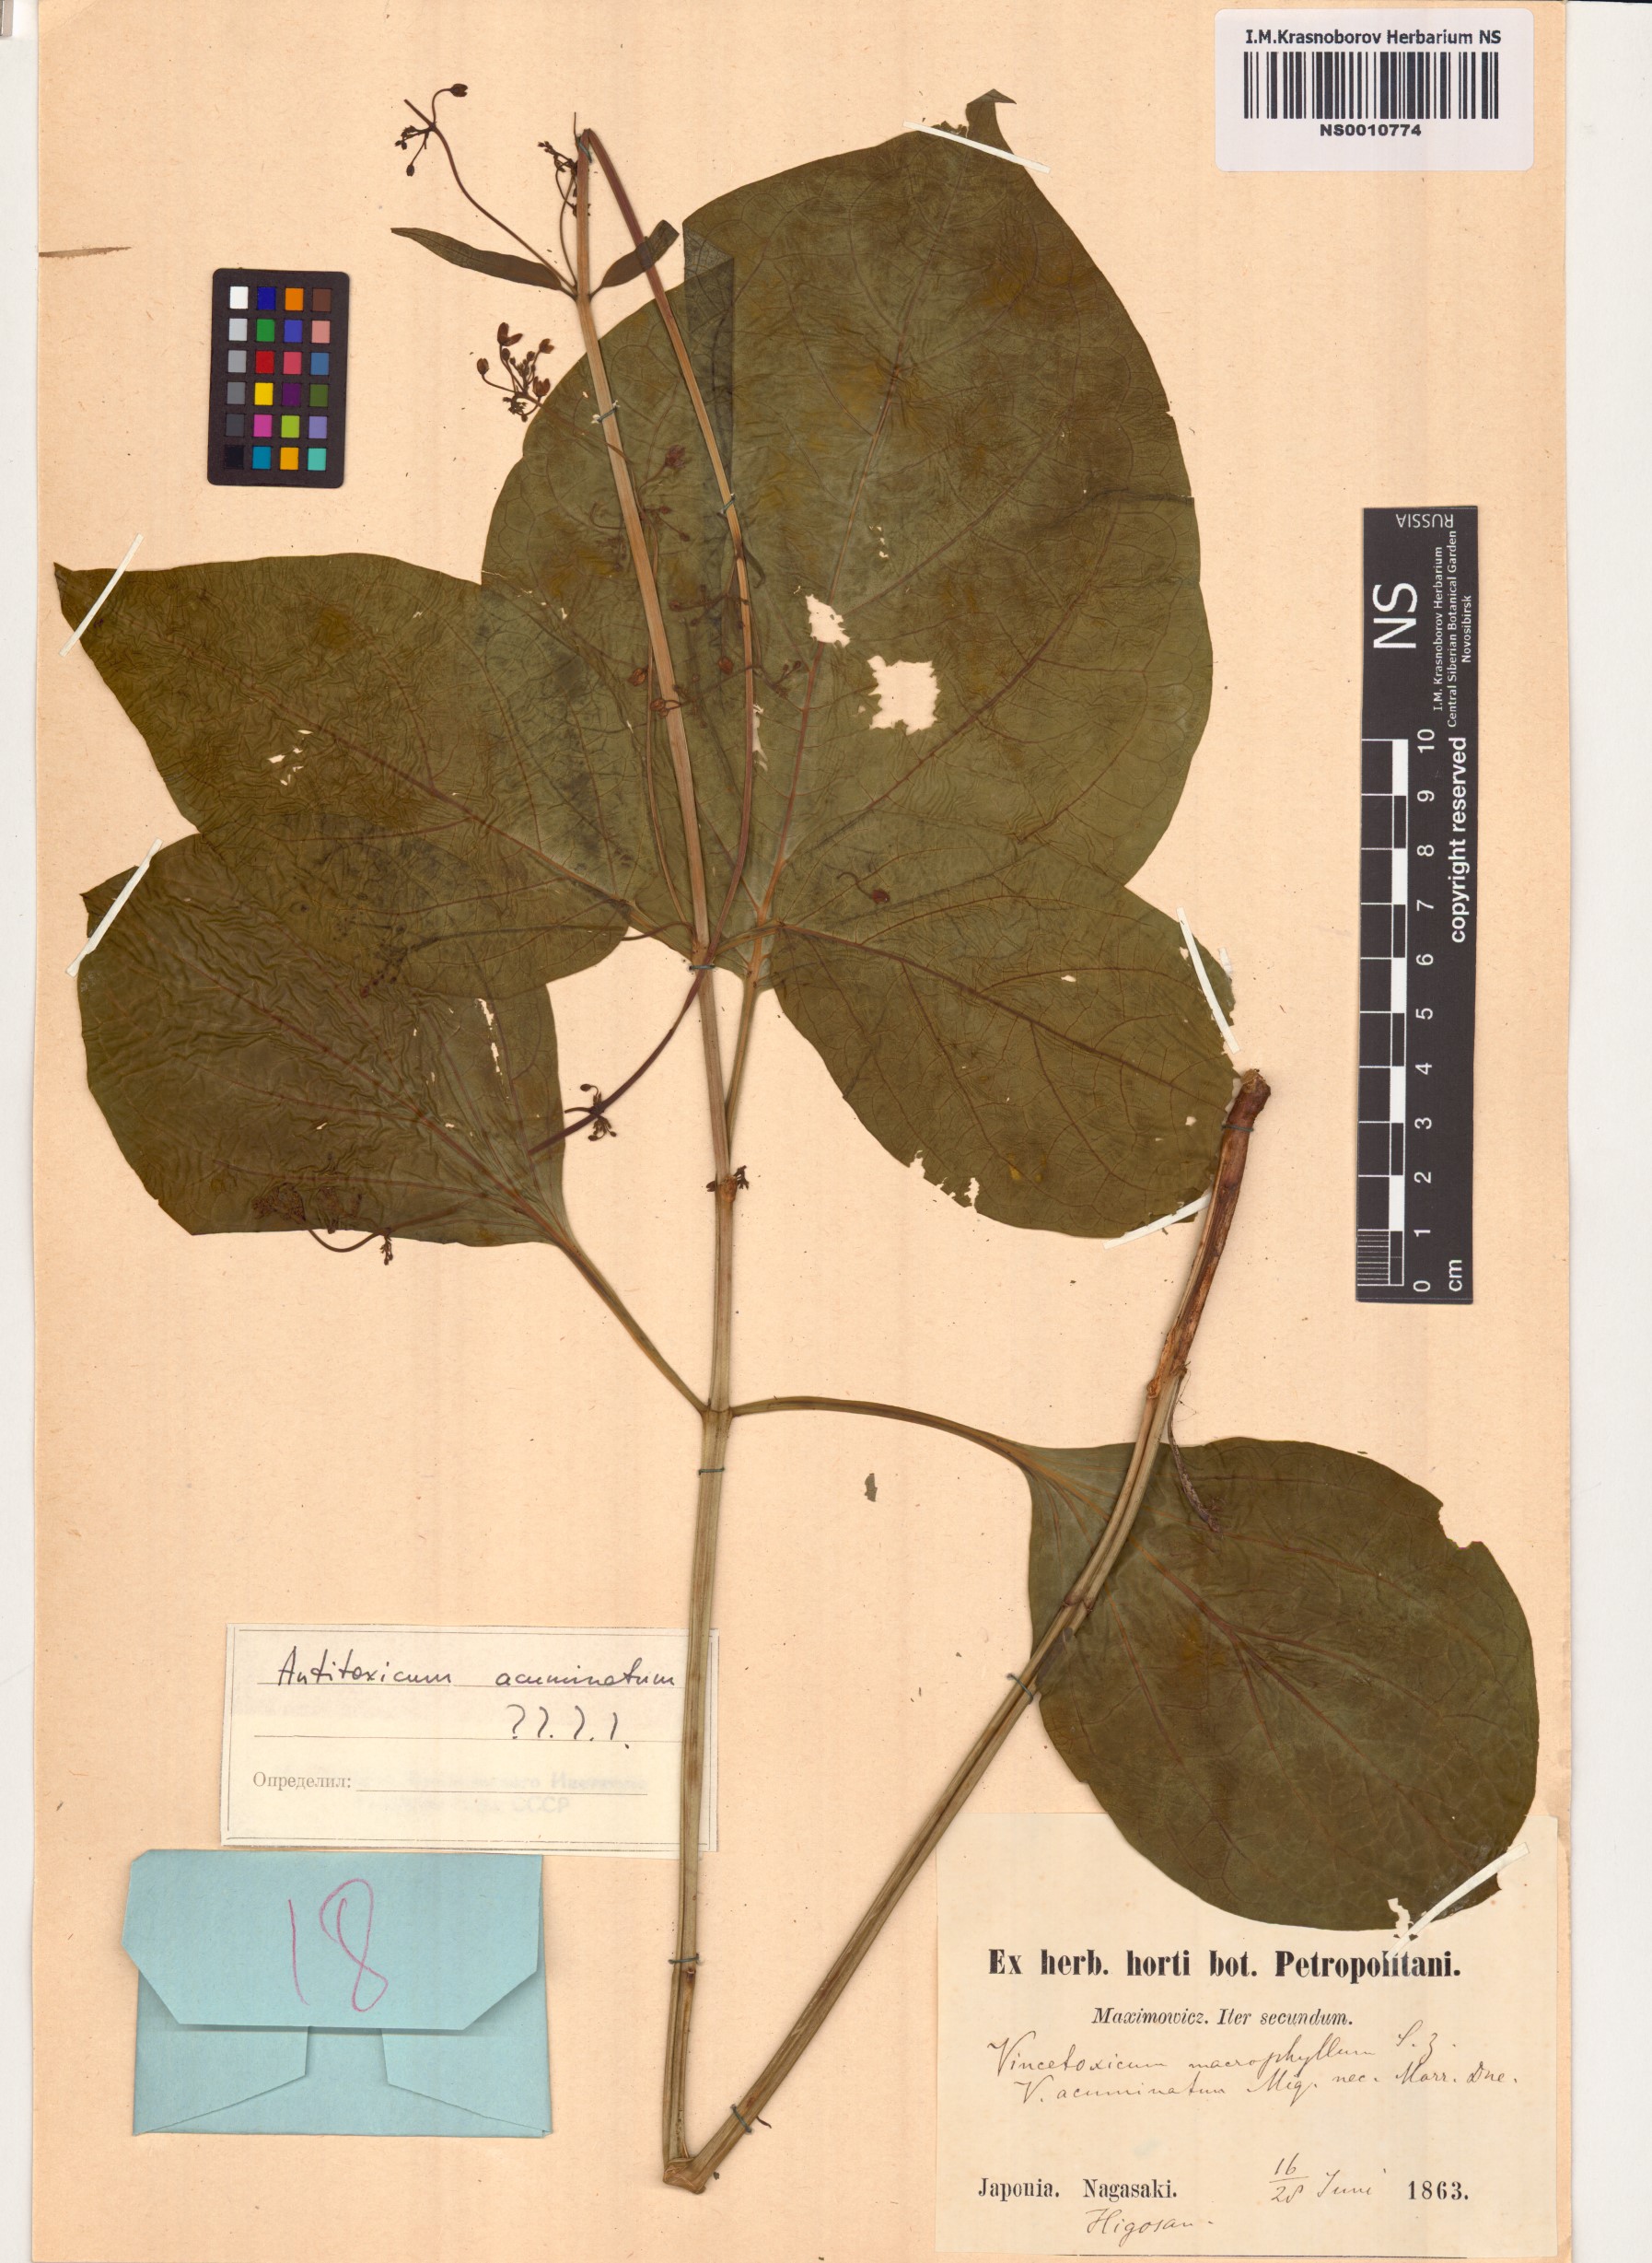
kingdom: Plantae
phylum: Tracheophyta
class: Magnoliopsida
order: Gentianales
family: Apocynaceae
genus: Vincetoxicum
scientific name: Vincetoxicum ascyrifolium
